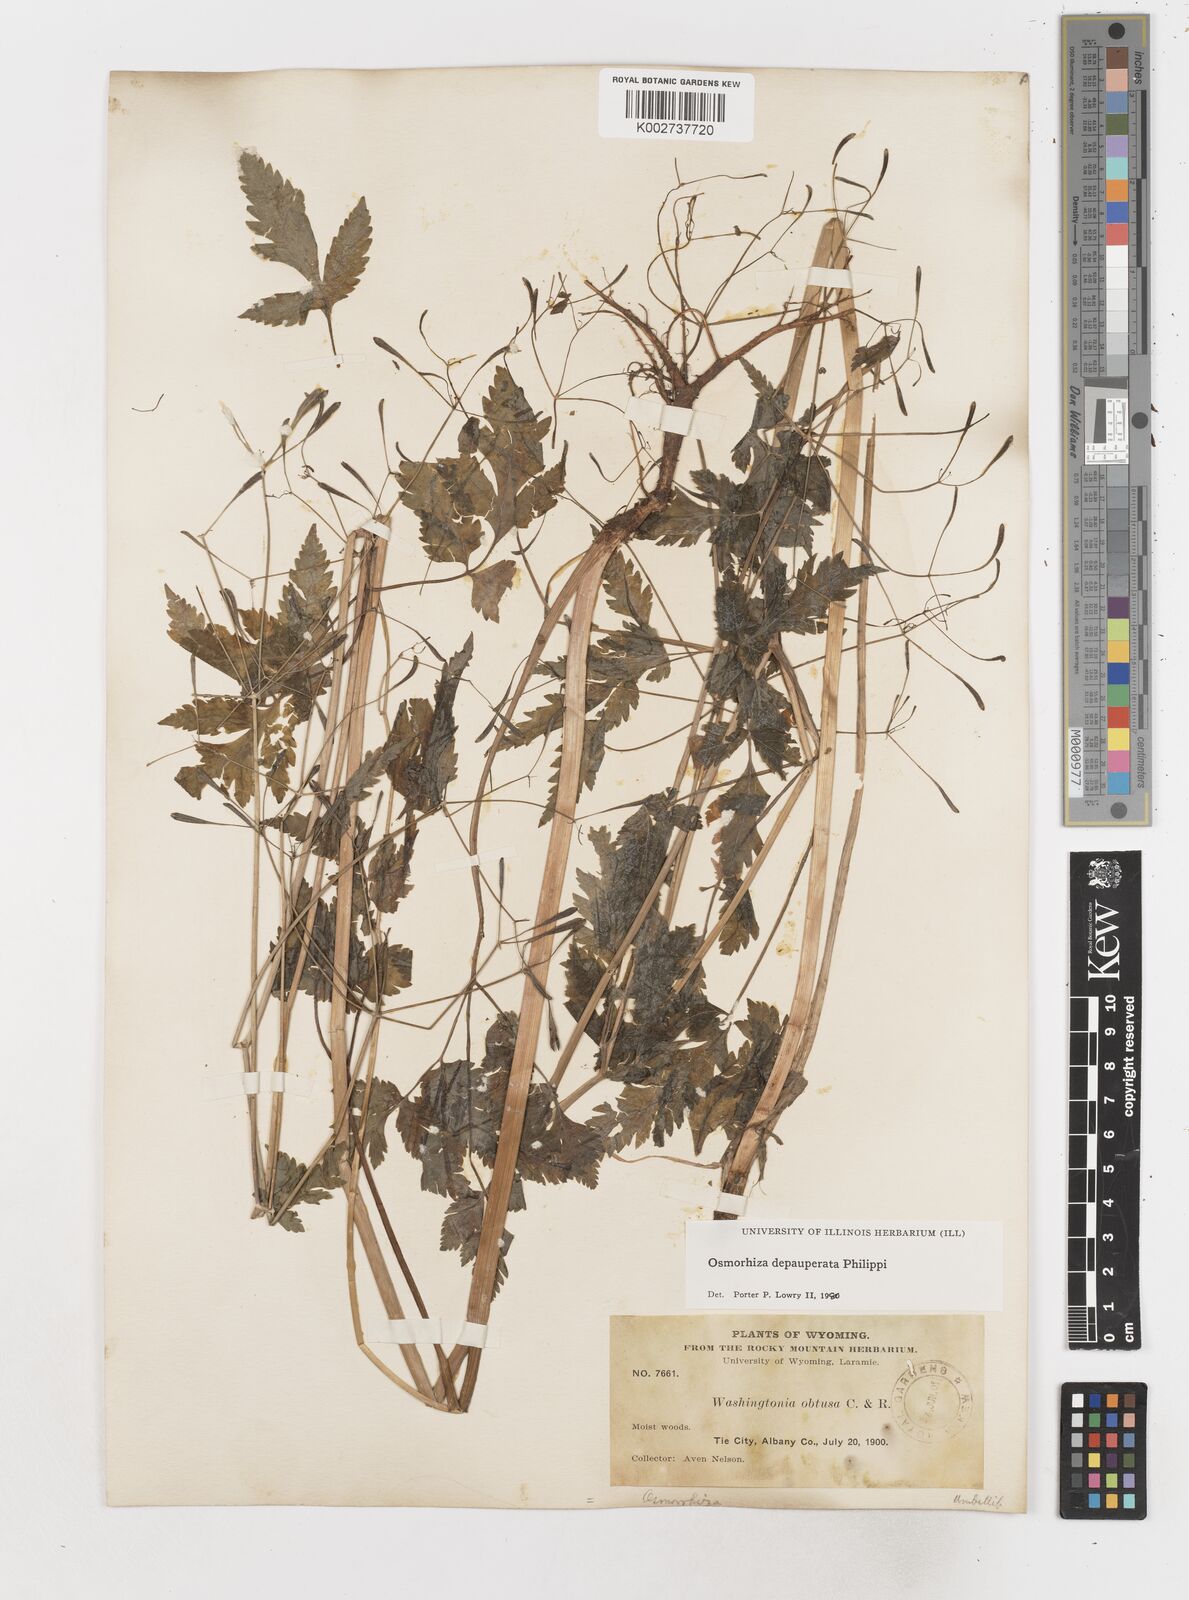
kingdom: Plantae
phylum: Tracheophyta
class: Magnoliopsida
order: Apiales
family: Apiaceae
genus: Osmorhiza
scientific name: Osmorhiza depauperata
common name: Blunt sweet cicely
